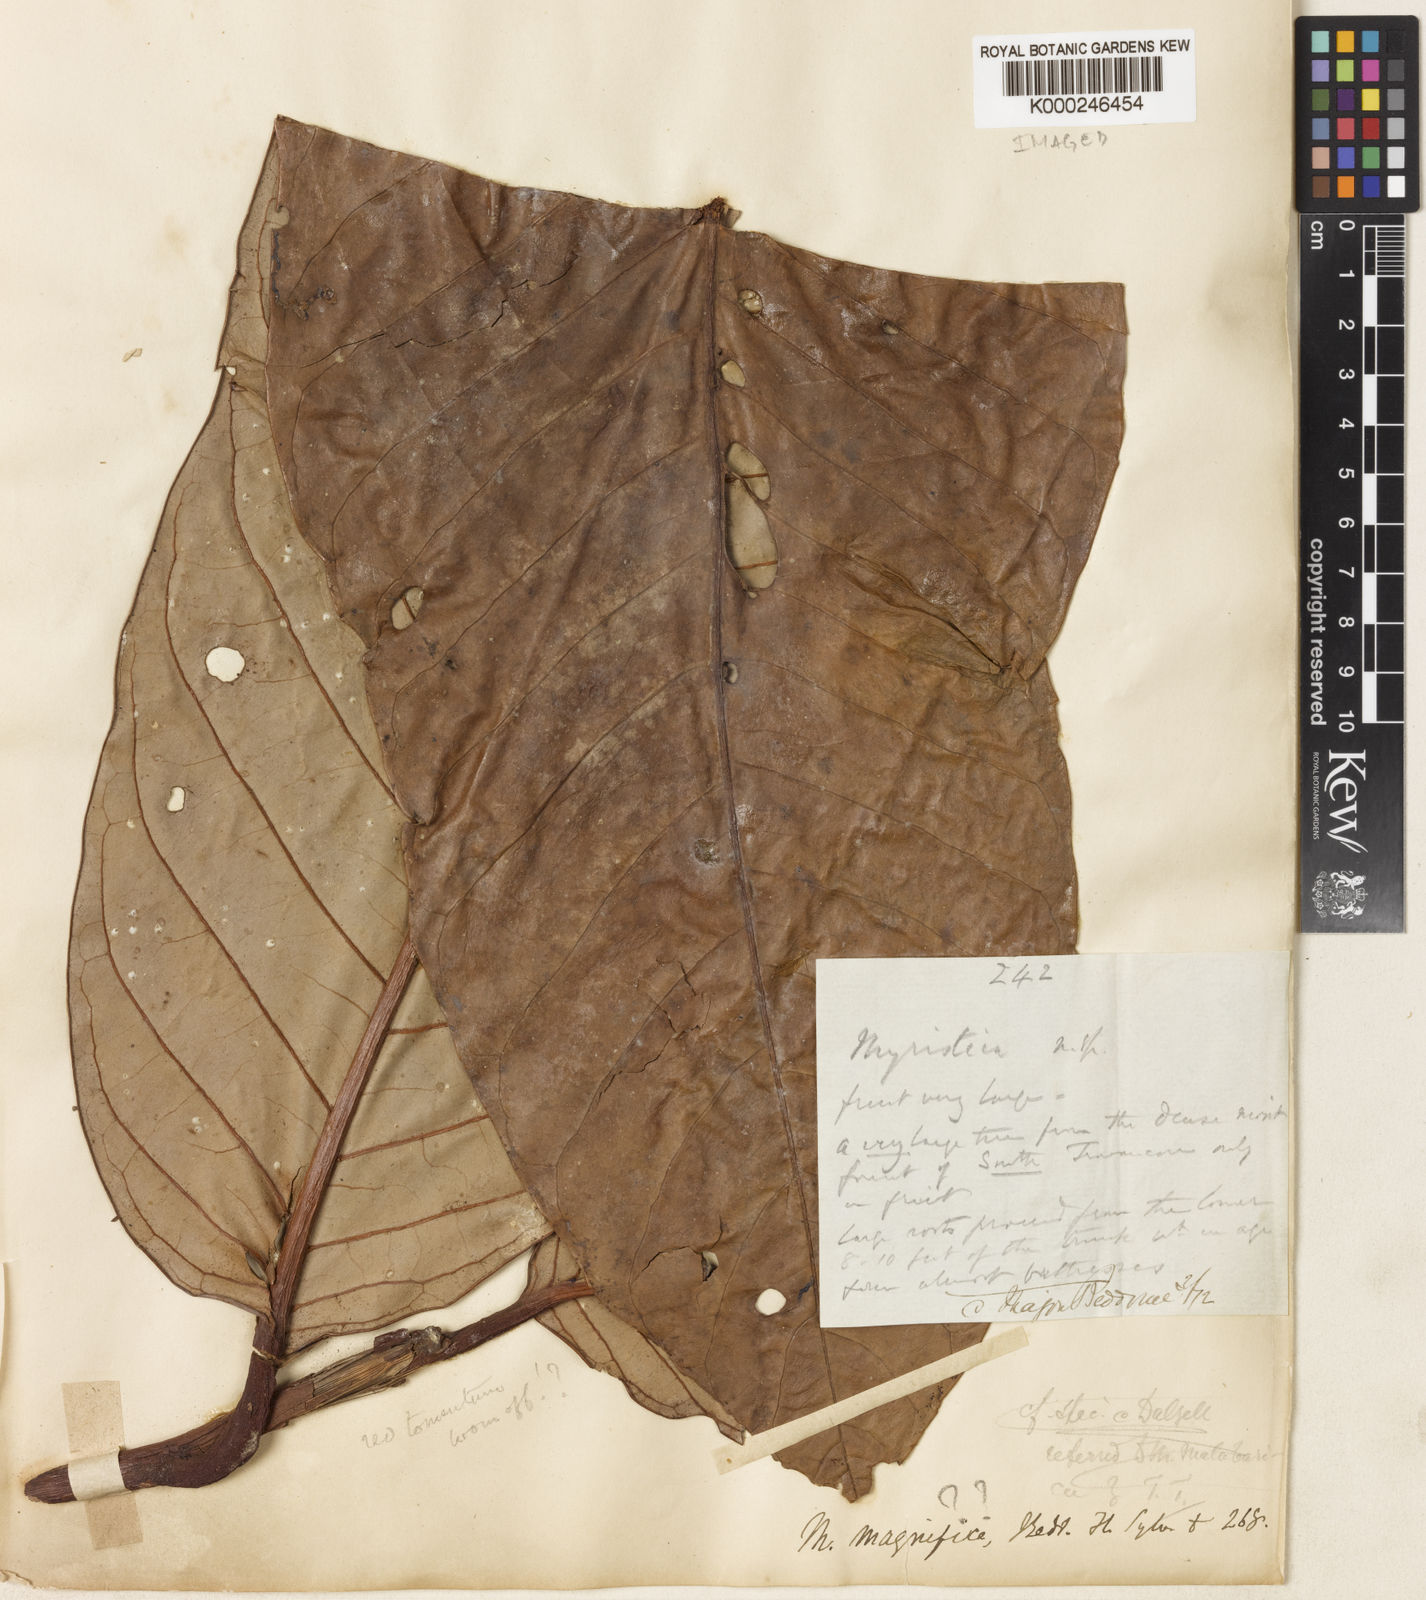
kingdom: Plantae
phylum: Tracheophyta
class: Magnoliopsida
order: Magnoliales
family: Myristicaceae
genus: Myristica
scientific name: Myristica fatua
